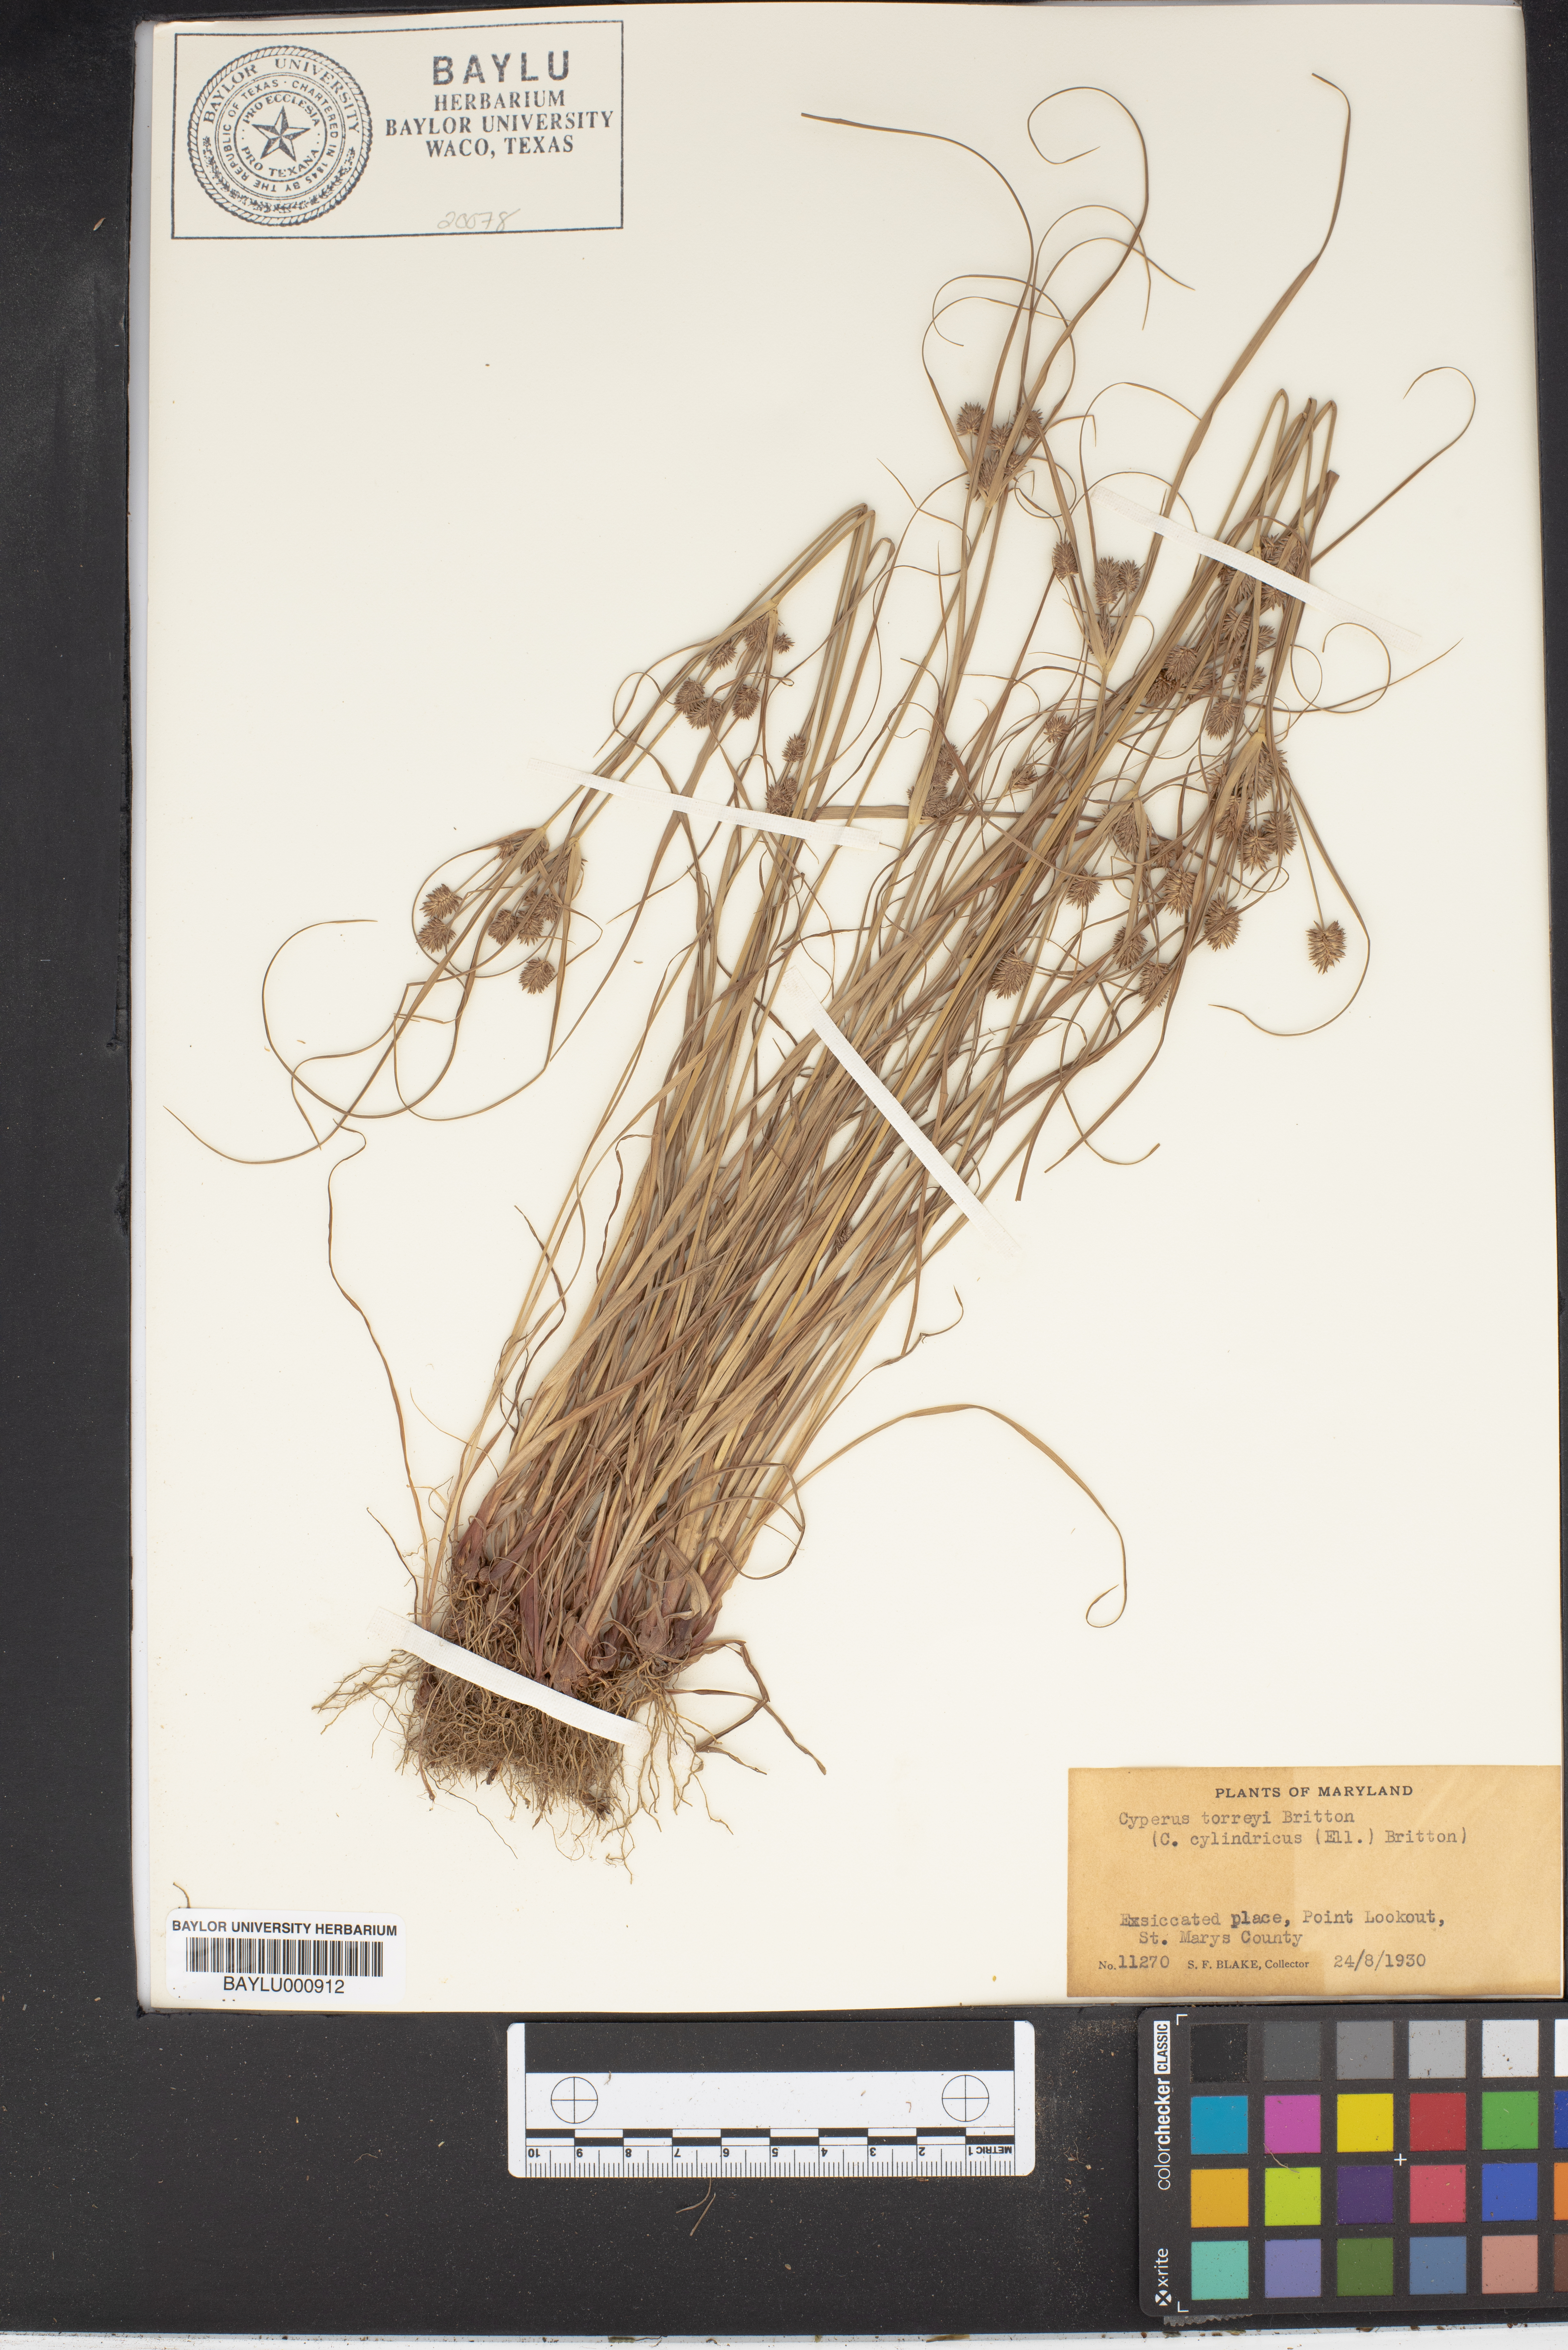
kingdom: Plantae
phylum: Tracheophyta
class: Liliopsida
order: Poales
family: Cyperaceae
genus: Cyperus
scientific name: Cyperus retrorsus
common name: Pinebarren flat sedge
